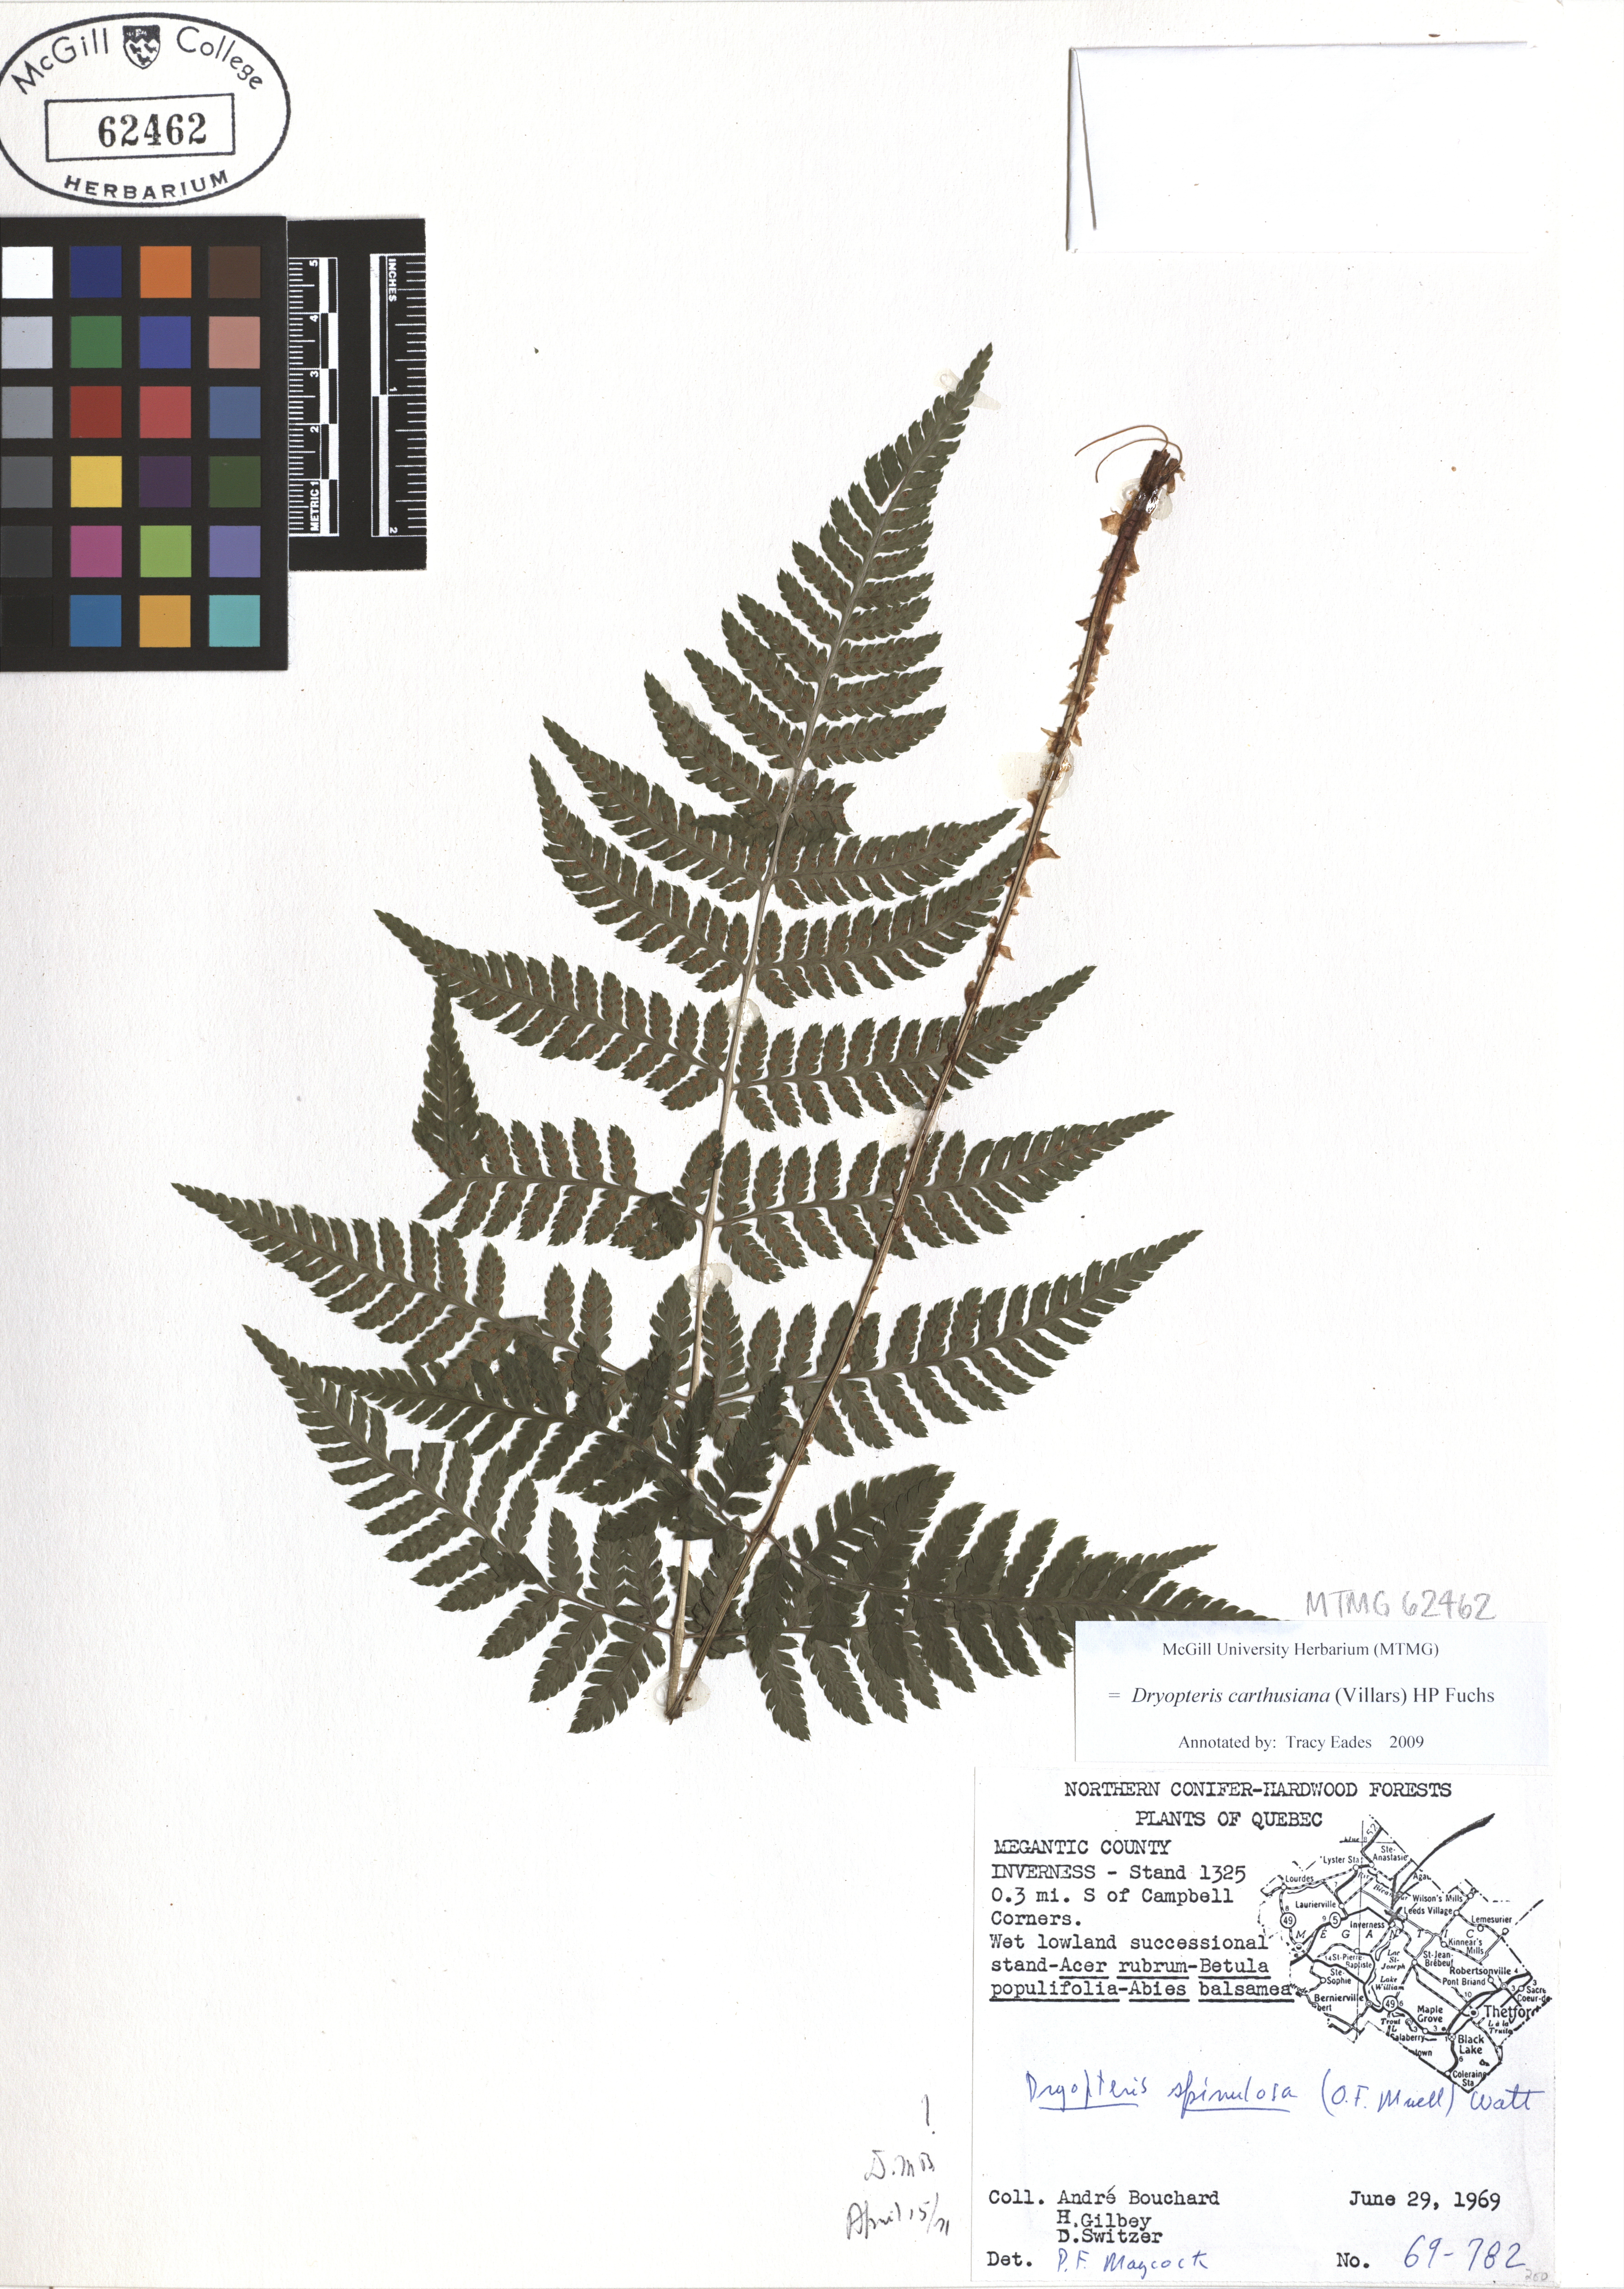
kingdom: Plantae
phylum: Tracheophyta
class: Polypodiopsida
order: Polypodiales
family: Dryopteridaceae
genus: Dryopteris
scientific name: Dryopteris carthusiana
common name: Narrow buckler-fern
